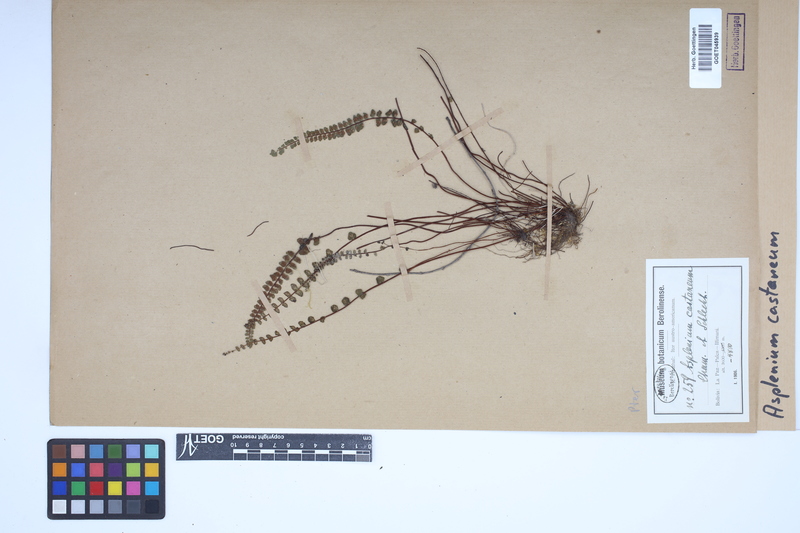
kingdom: Plantae
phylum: Tracheophyta
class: Polypodiopsida
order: Polypodiales
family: Aspleniaceae
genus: Asplenium
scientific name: Asplenium castaneum
